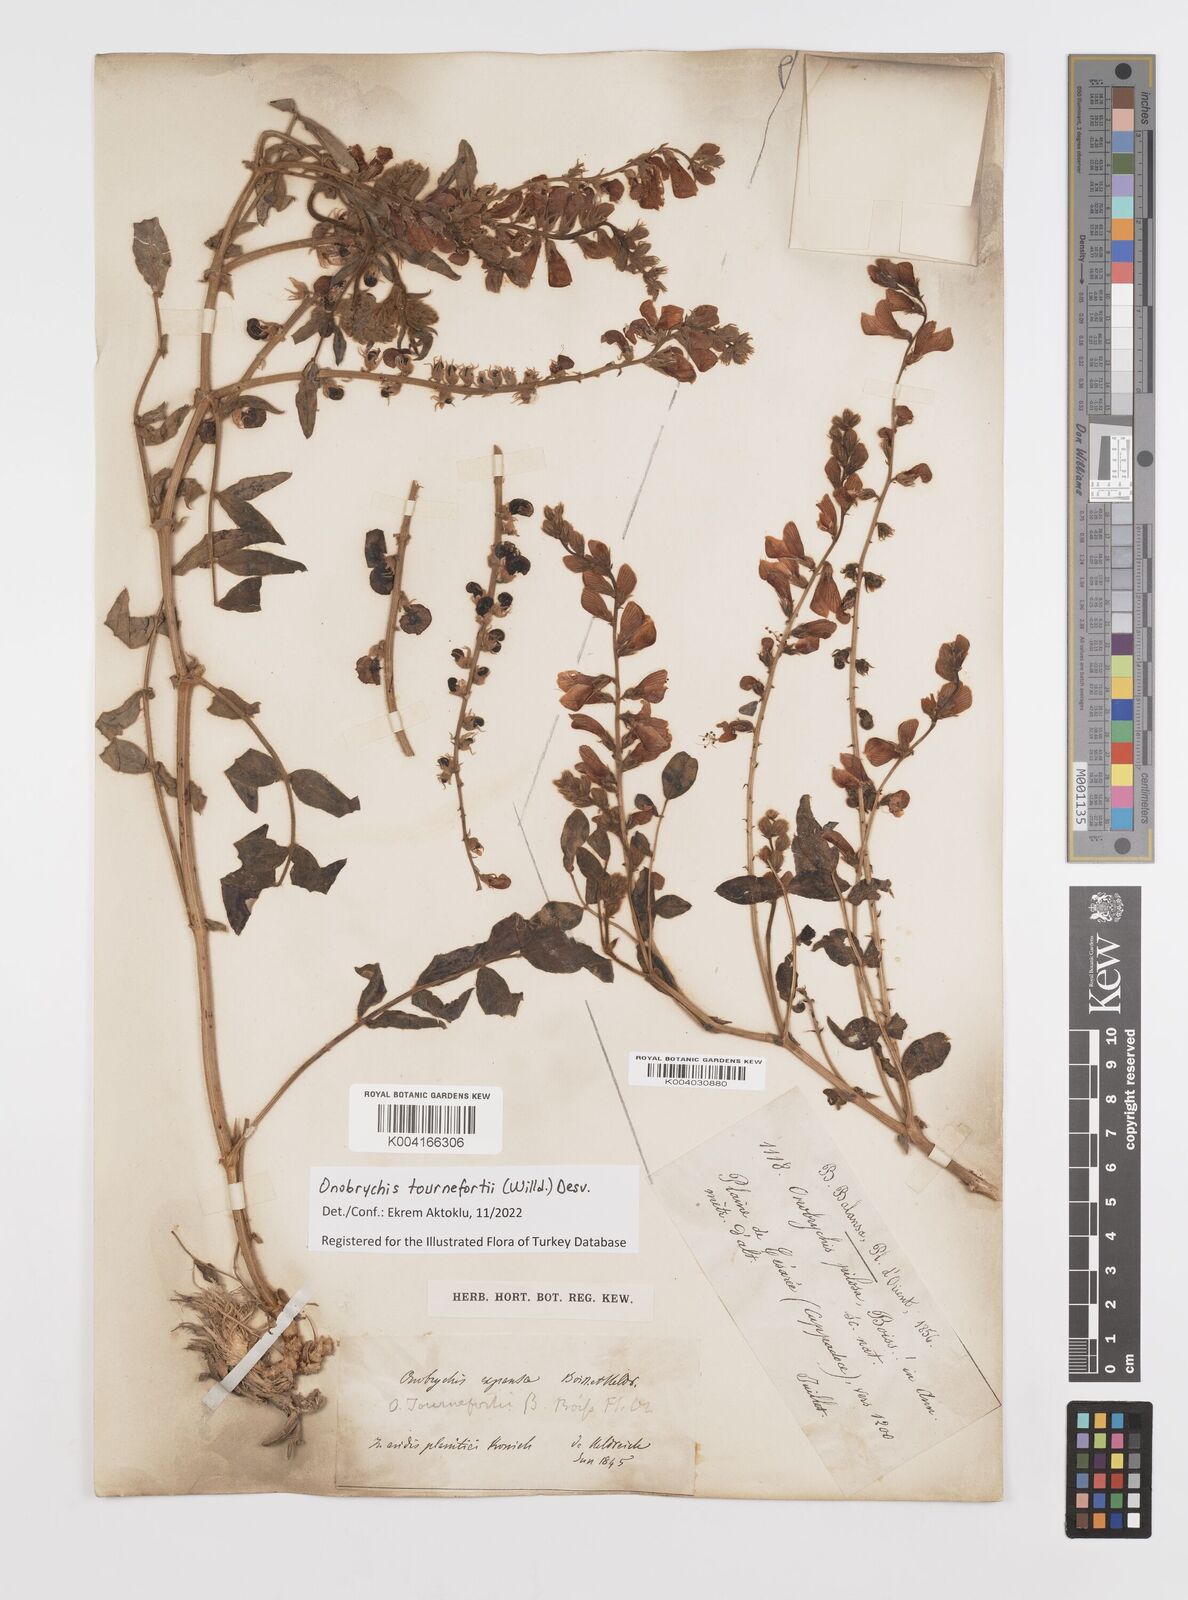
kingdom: Plantae
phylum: Tracheophyta
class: Magnoliopsida
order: Fabales
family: Fabaceae
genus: Onobrychis
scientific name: Onobrychis tournefortii
